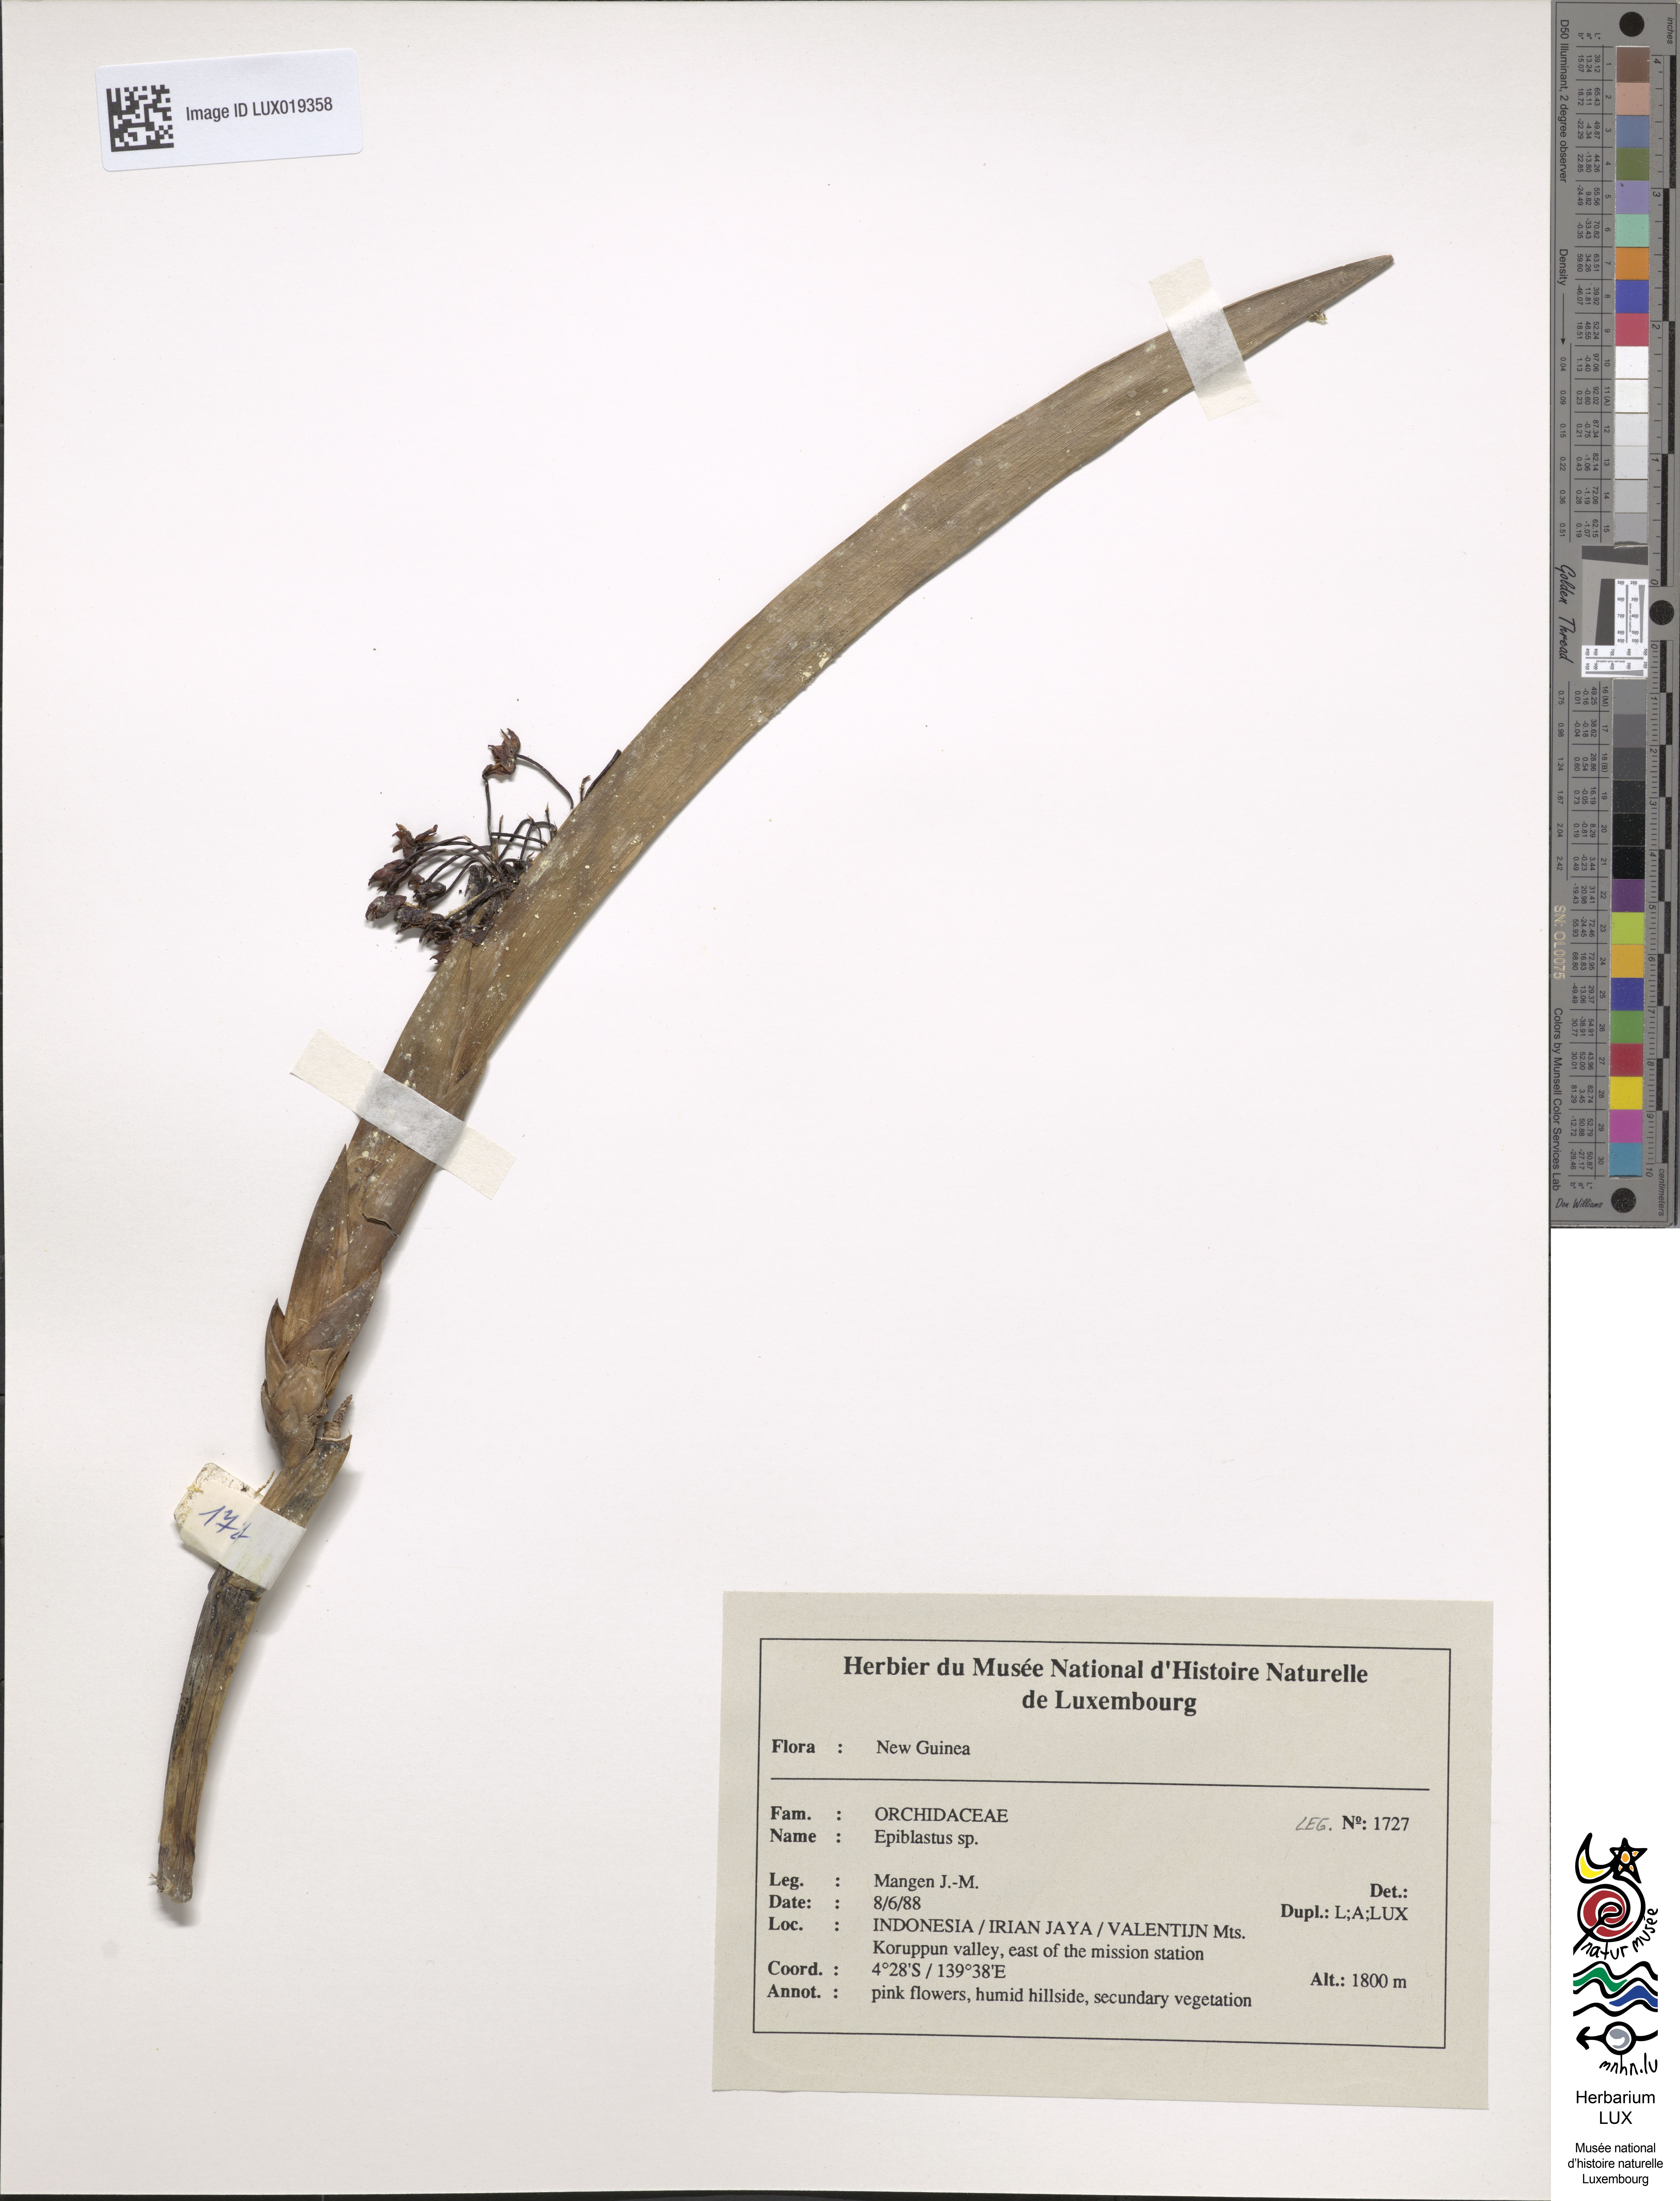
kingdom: Plantae
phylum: Tracheophyta
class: Liliopsida
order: Asparagales
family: Orchidaceae
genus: Epiblastus
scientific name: Epiblastus
